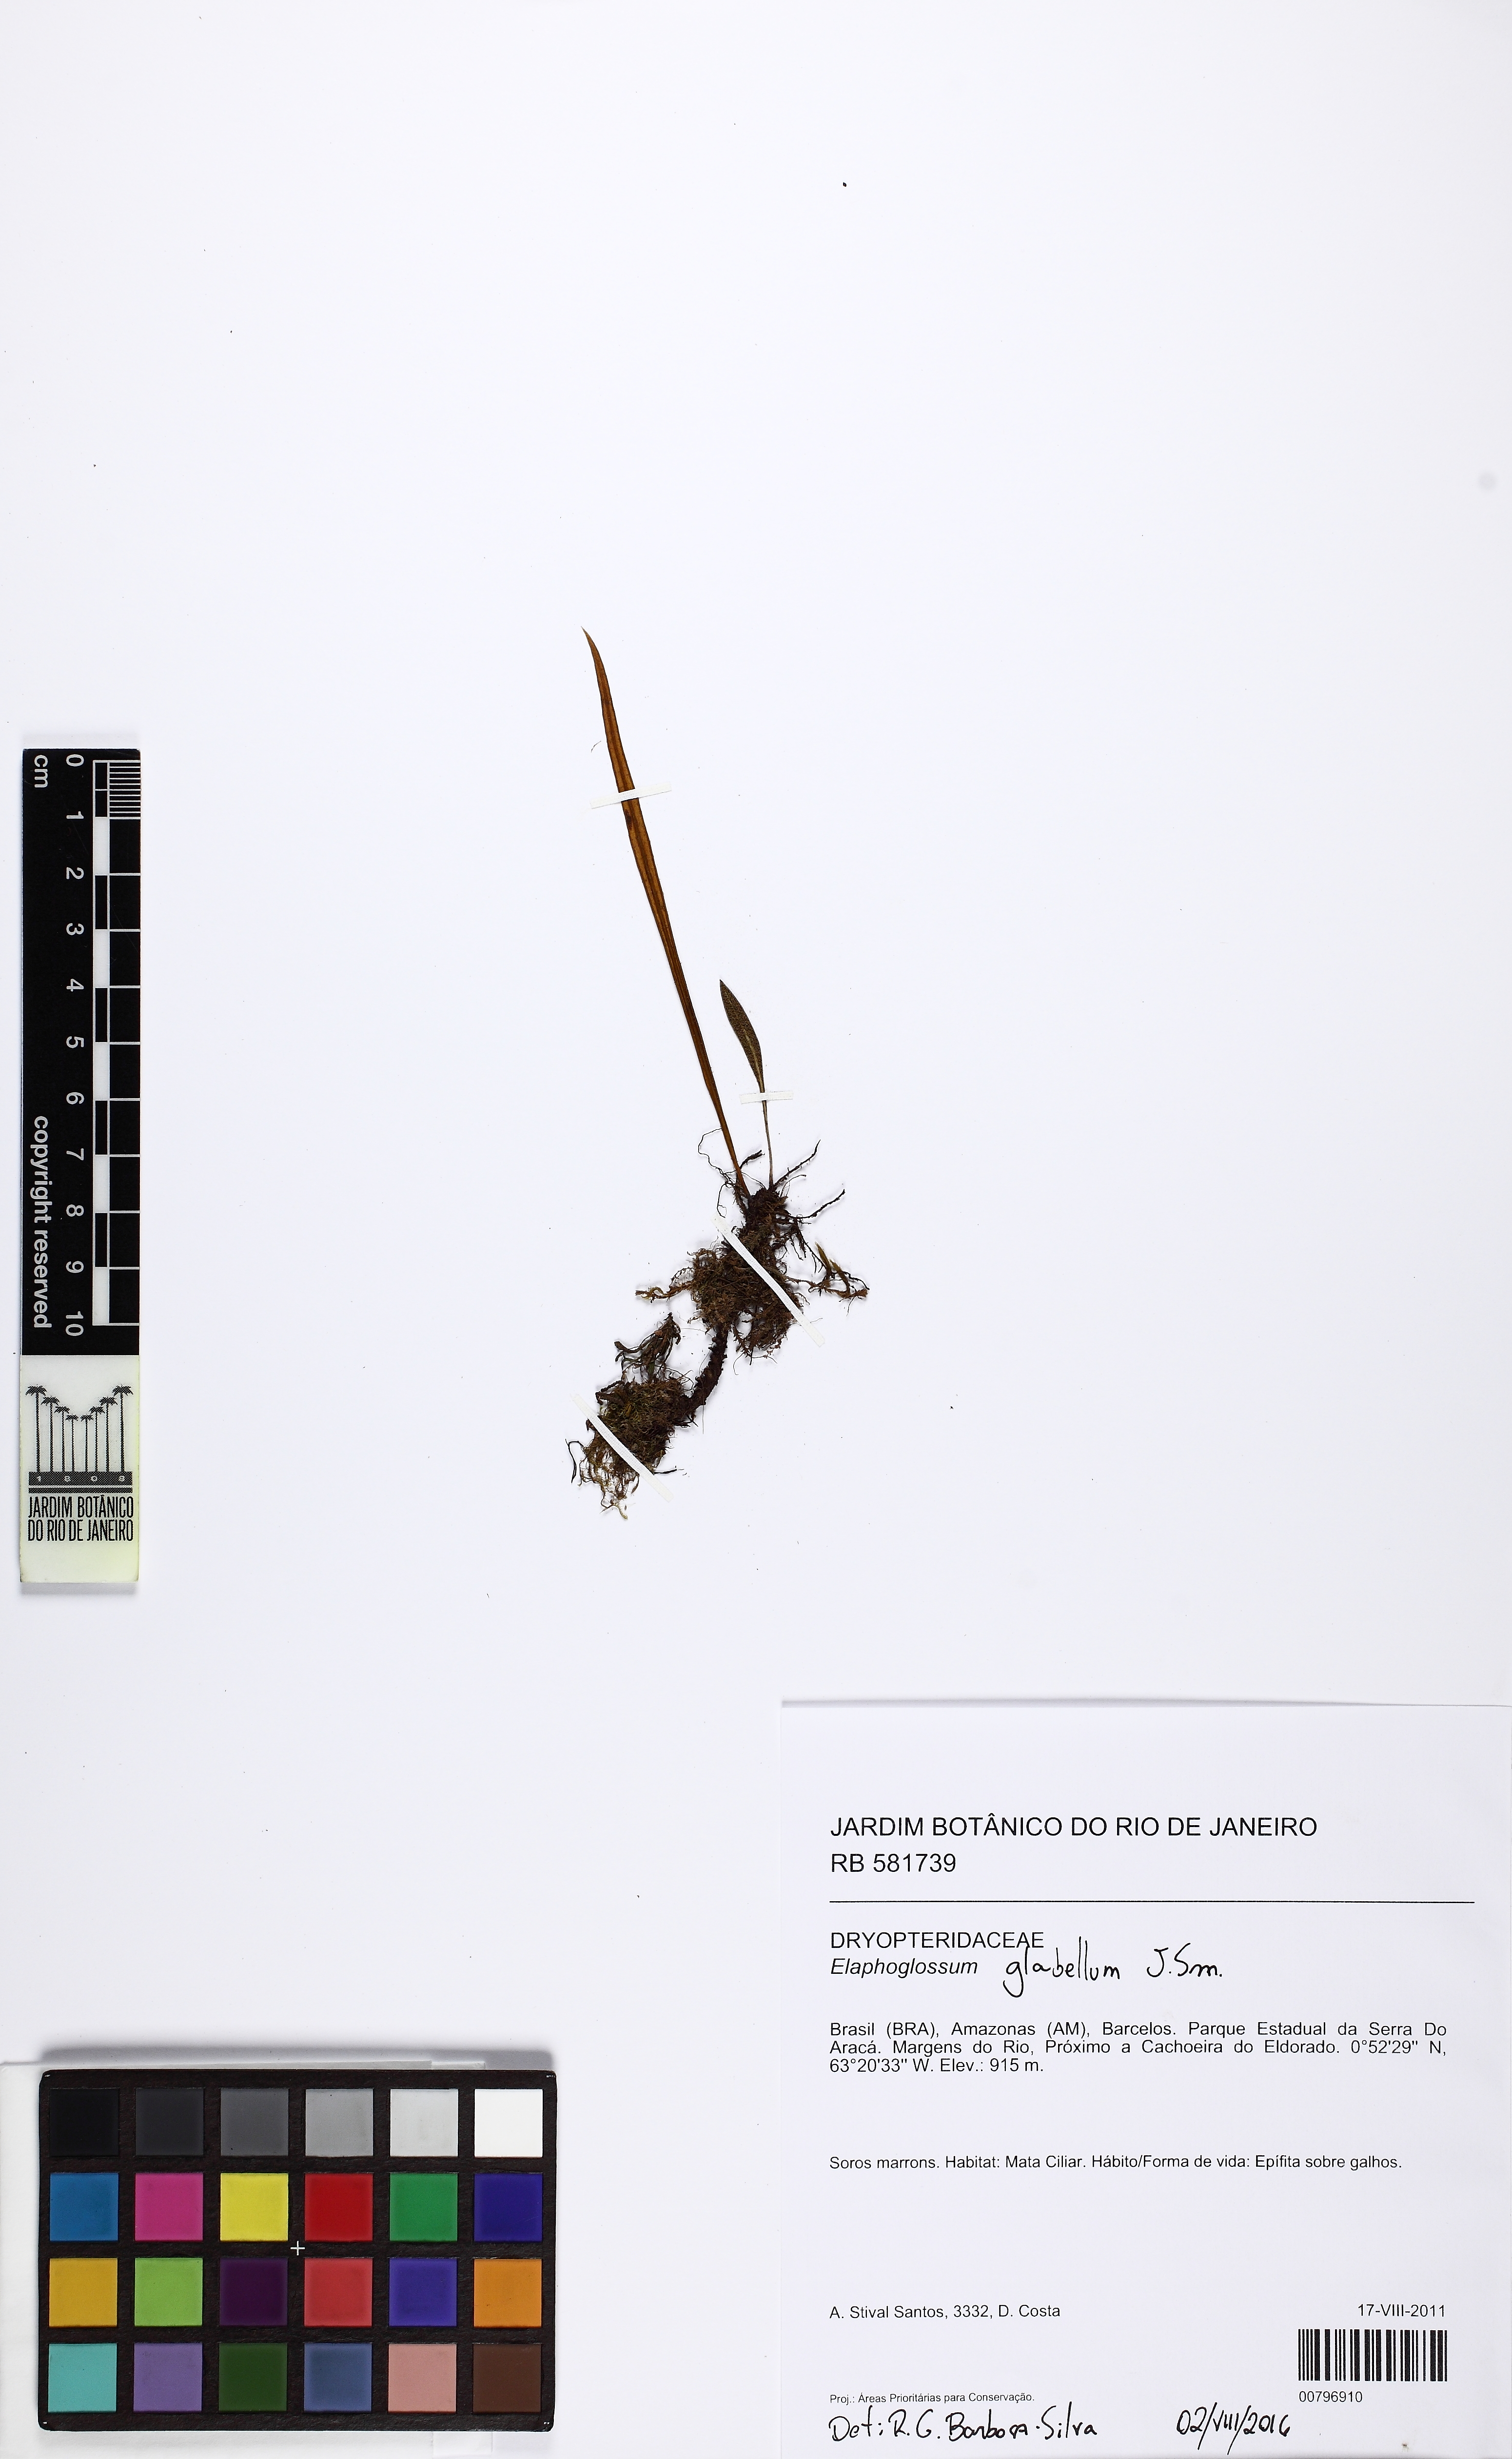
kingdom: Plantae
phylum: Tracheophyta
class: Polypodiopsida
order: Polypodiales
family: Dryopteridaceae
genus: Elaphoglossum
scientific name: Elaphoglossum glabellum
